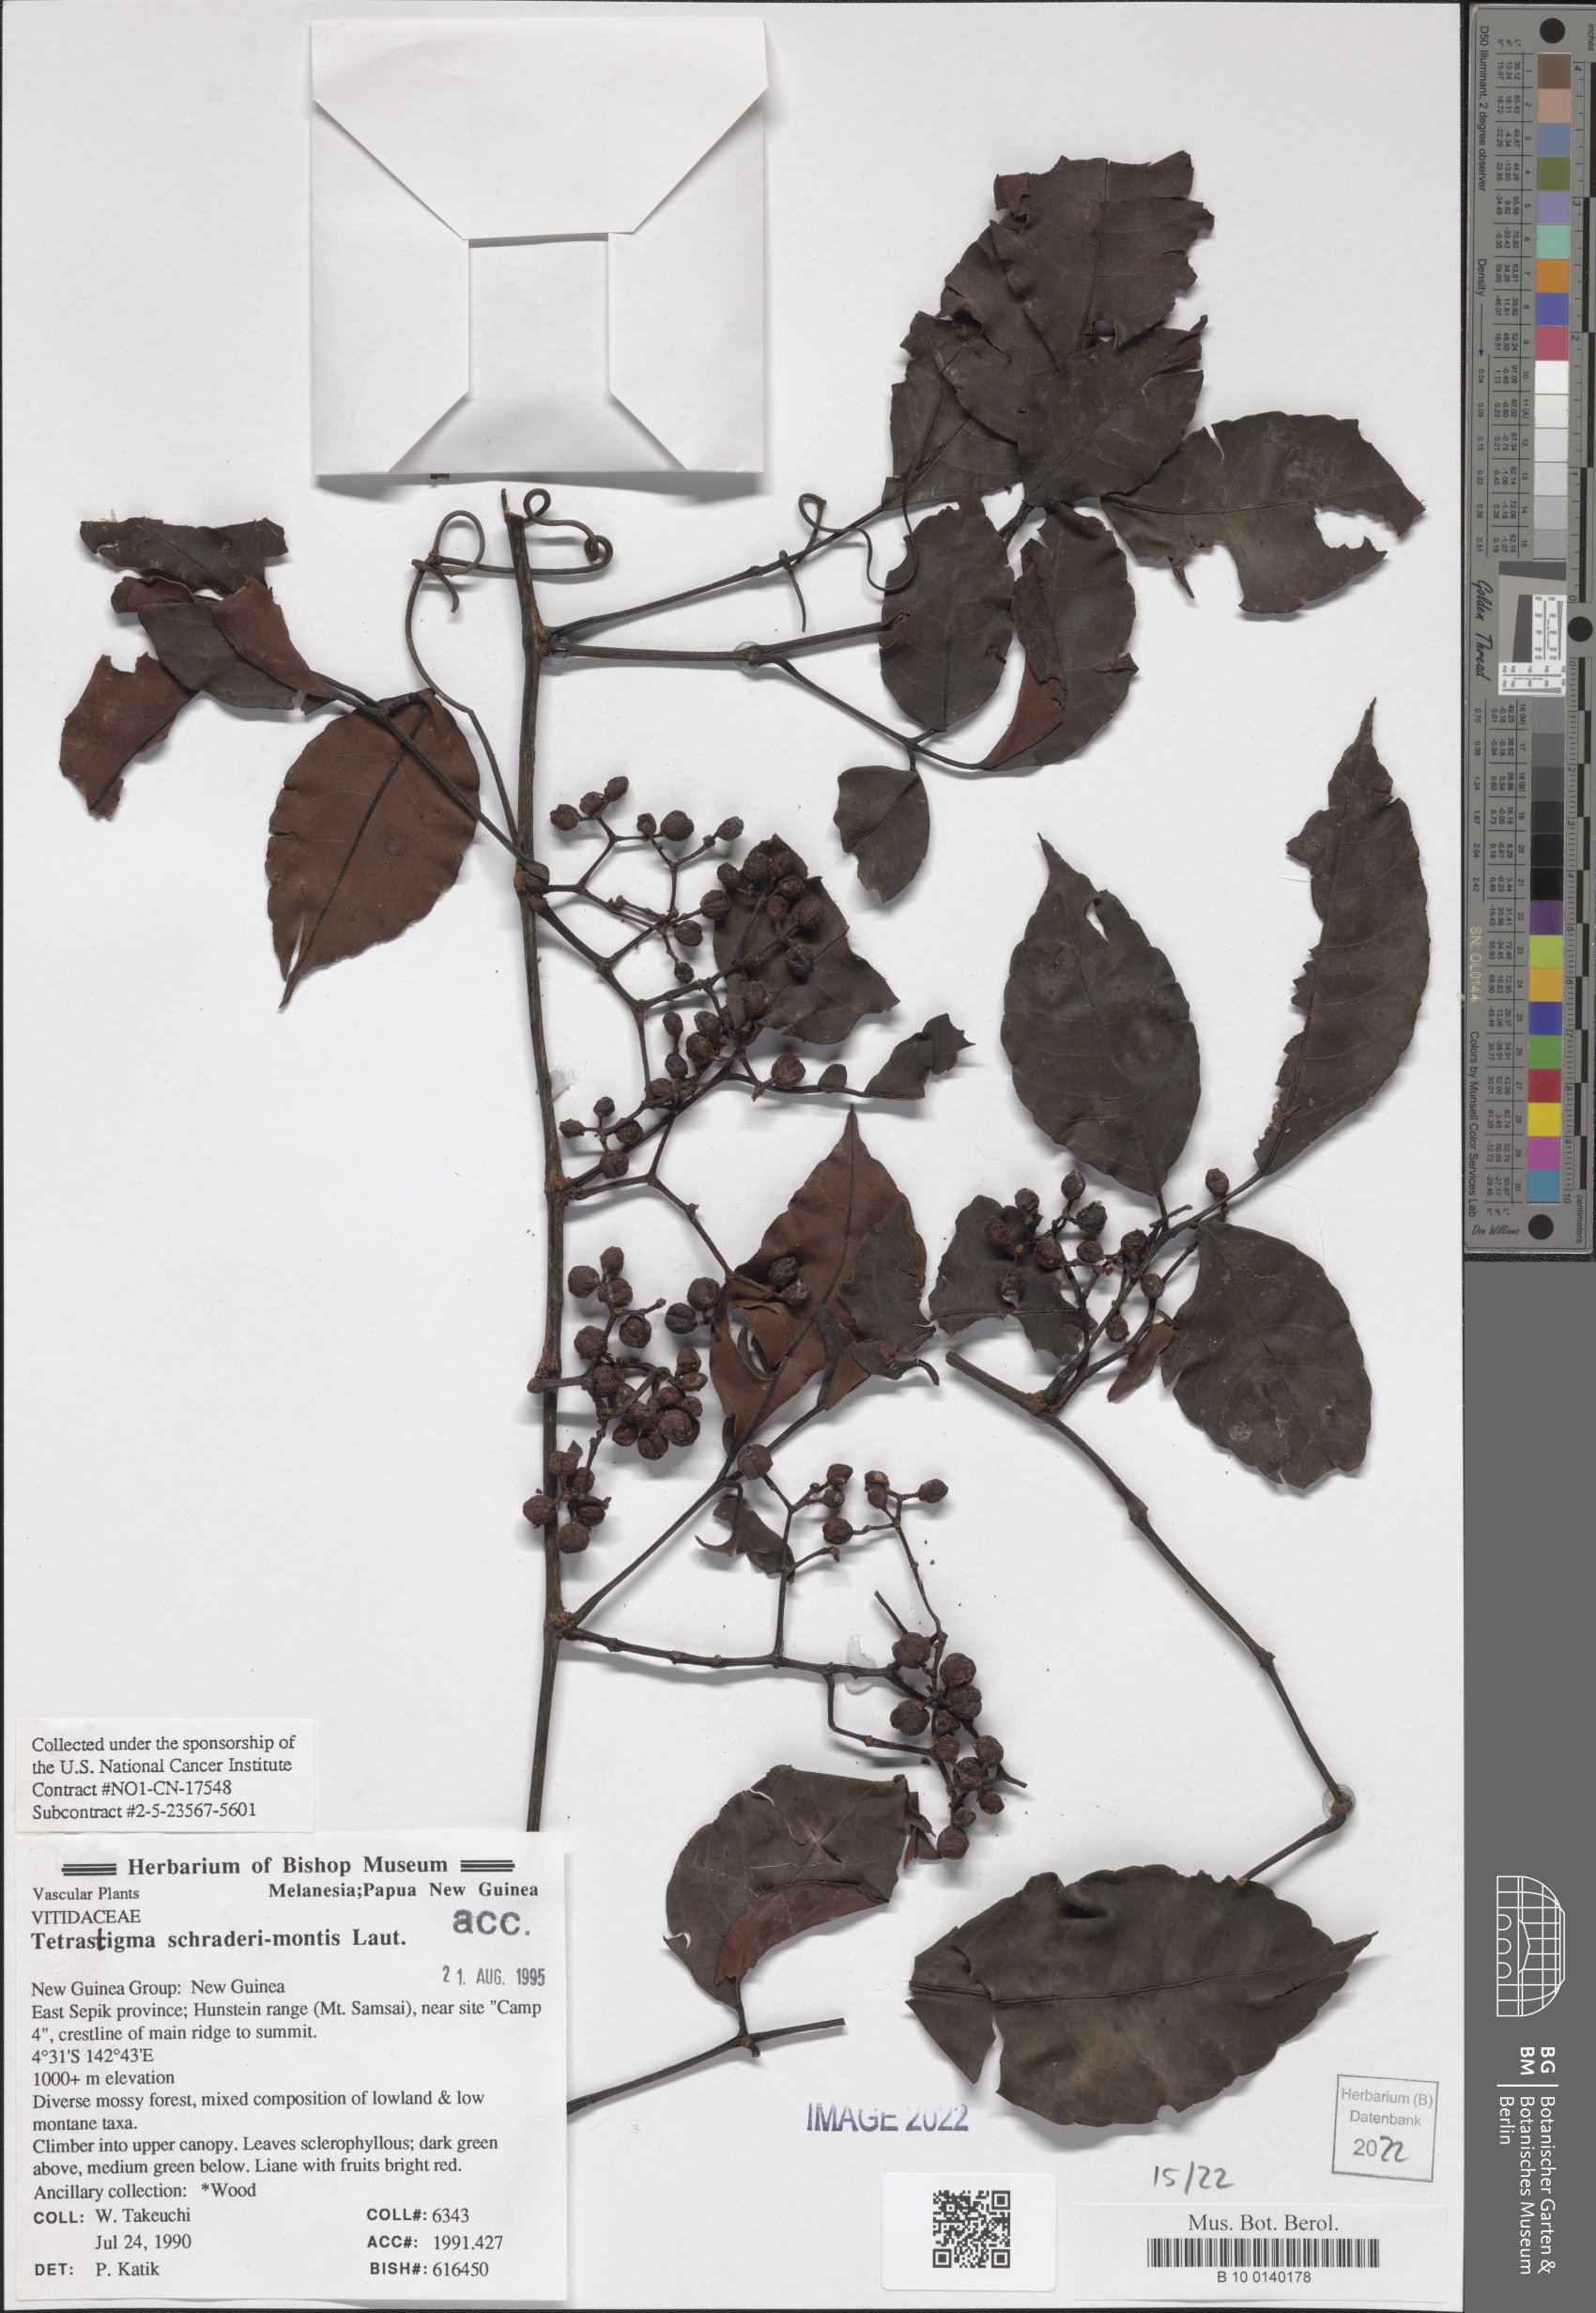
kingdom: Plantae
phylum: Tracheophyta
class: Magnoliopsida
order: Vitales
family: Vitaceae
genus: Tetrastigma
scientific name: Tetrastigma schraderi-montis
